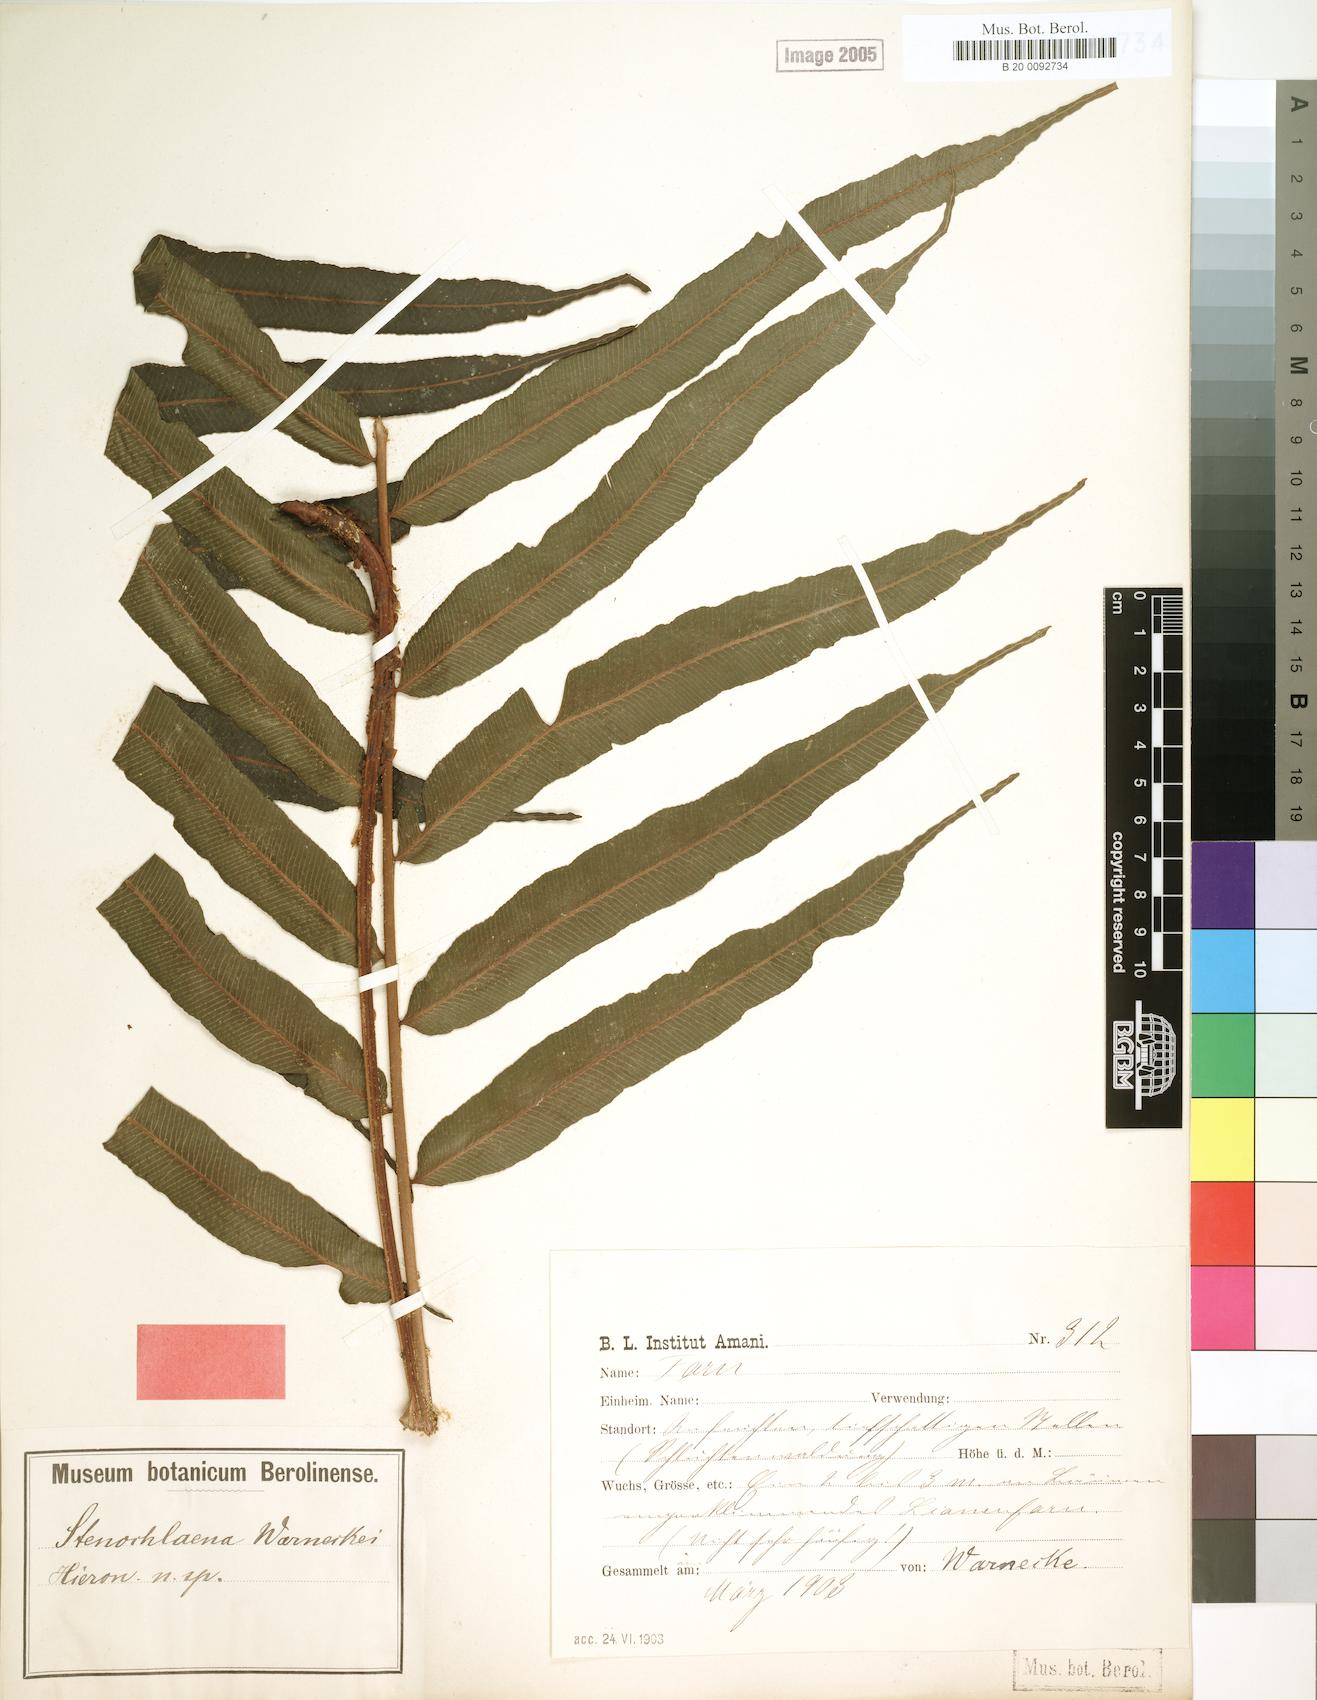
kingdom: Plantae
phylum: Tracheophyta
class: Polypodiopsida
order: Polypodiales
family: Lomariopsidaceae
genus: Lomariopsis
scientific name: Lomariopsis warneckei
